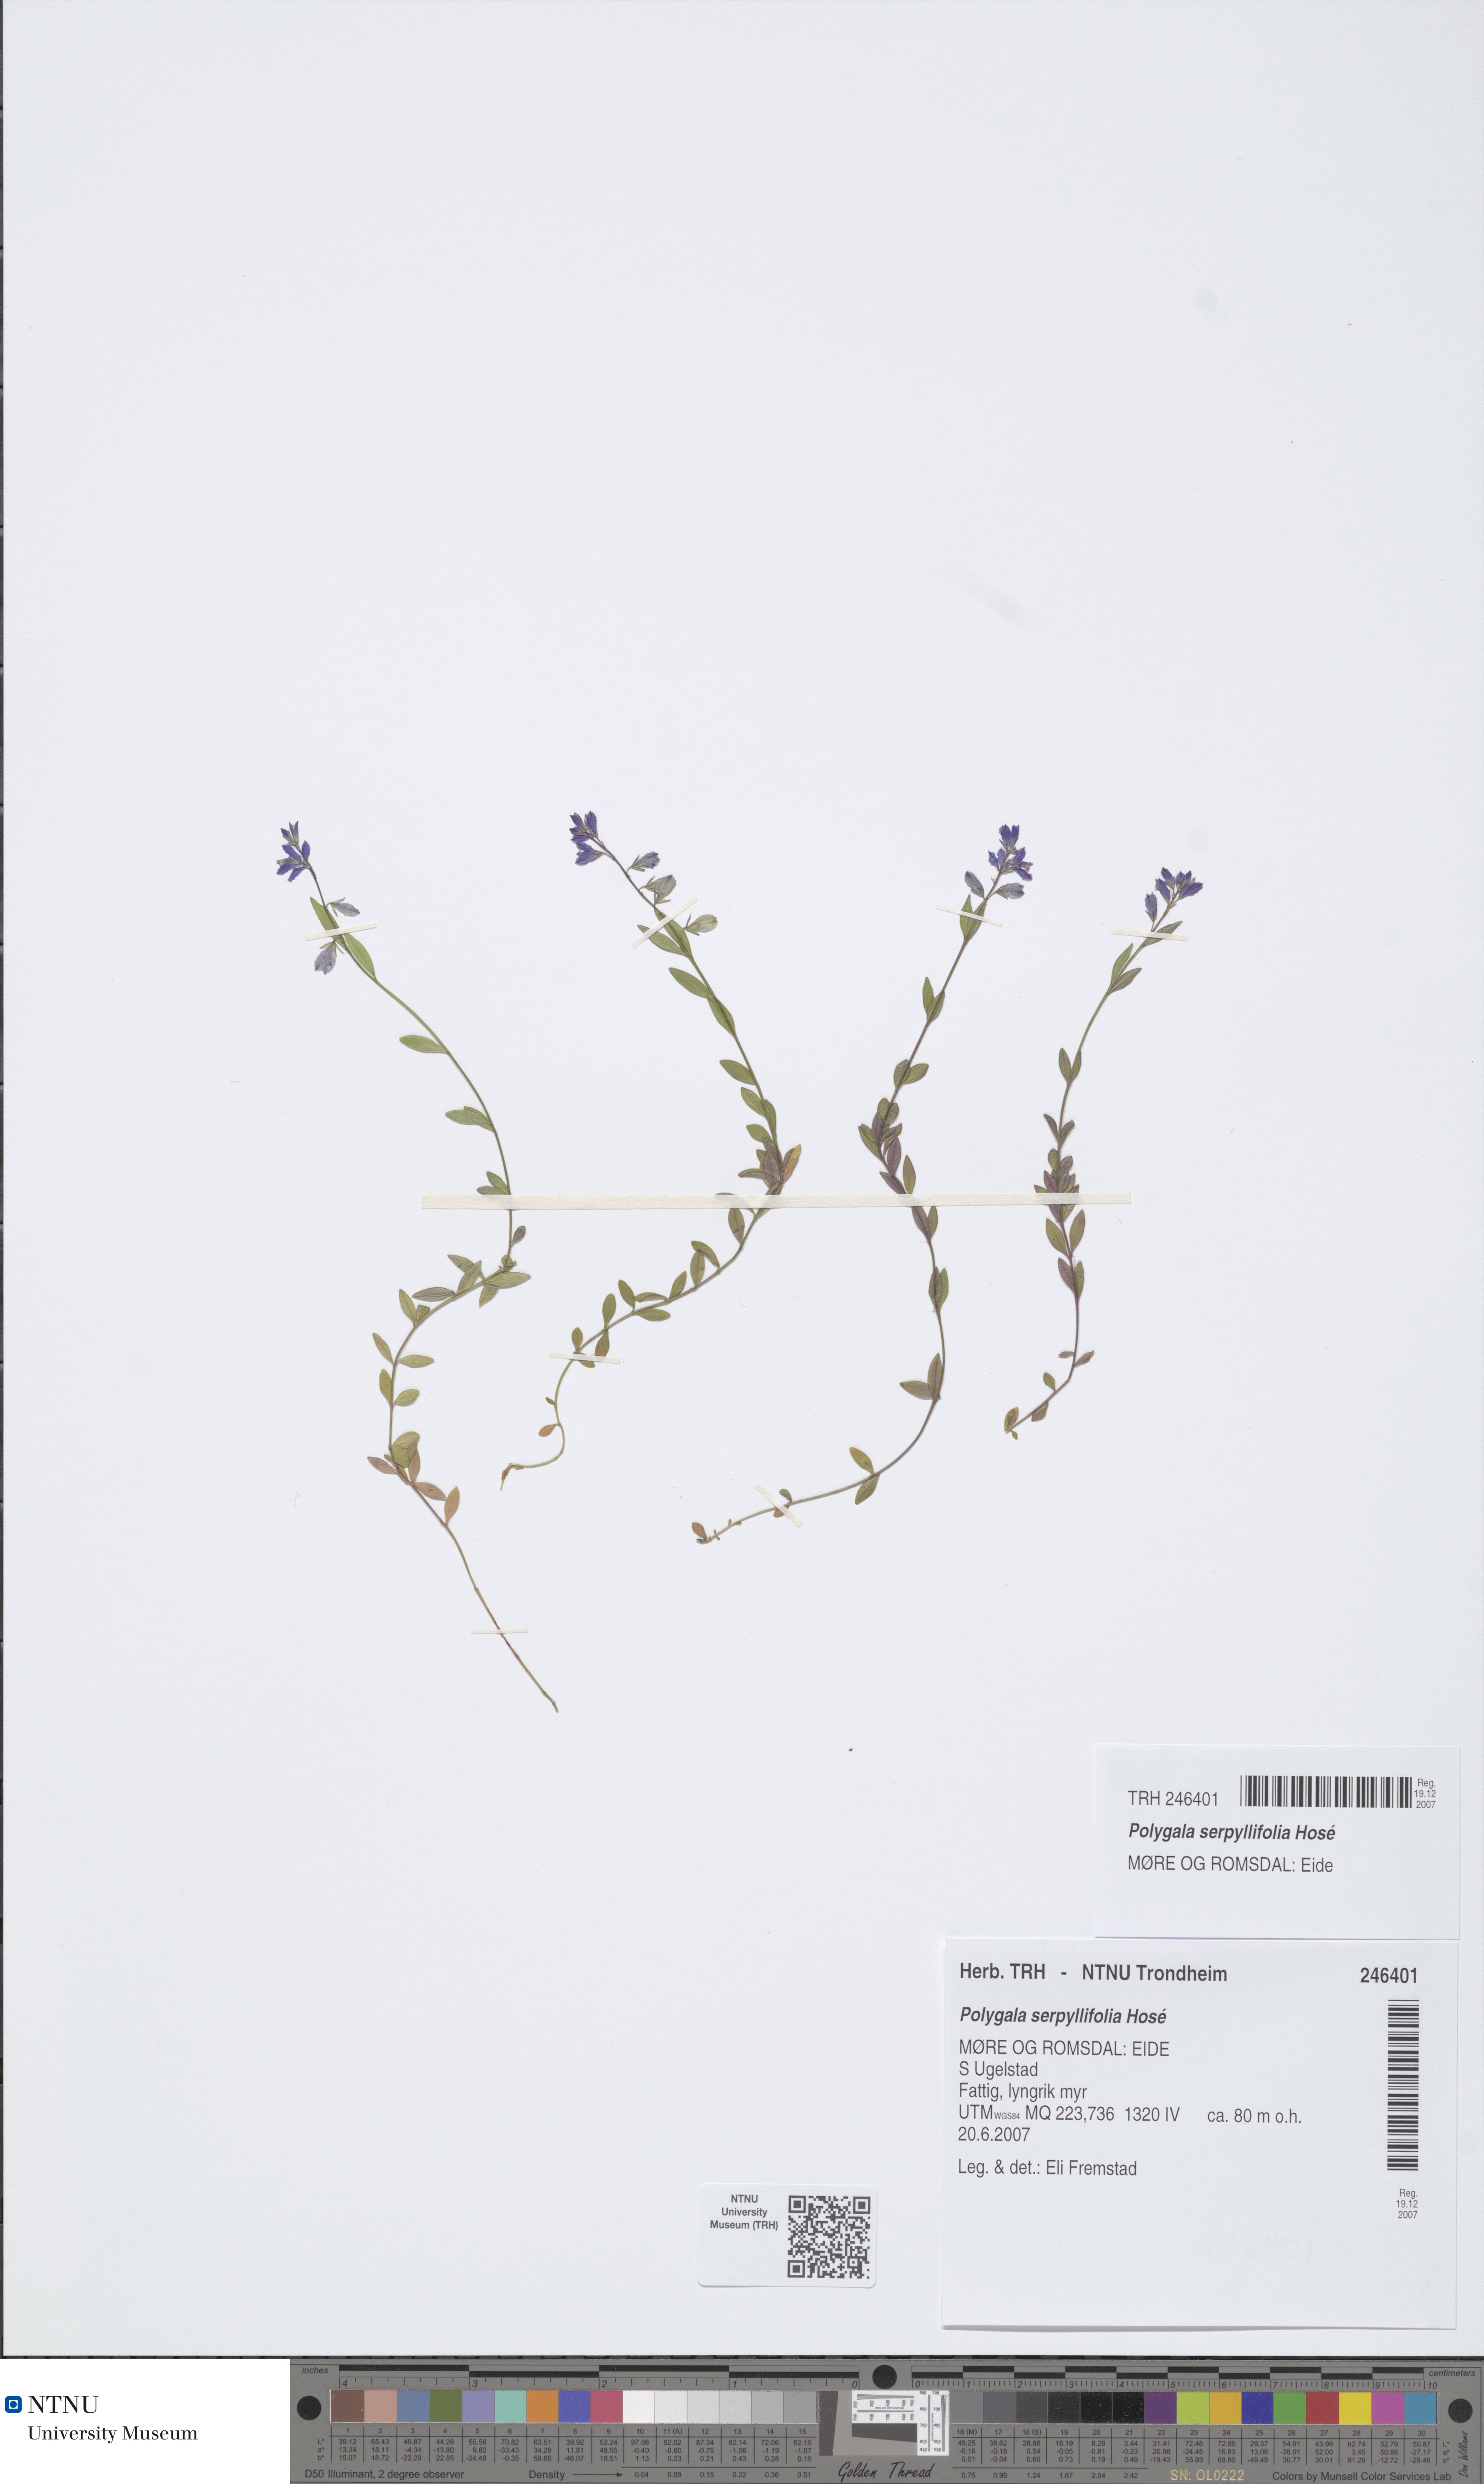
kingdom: Plantae
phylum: Tracheophyta
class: Magnoliopsida
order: Fabales
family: Polygalaceae
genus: Polygala
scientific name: Polygala serpyllifolia
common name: Heath milkwort
